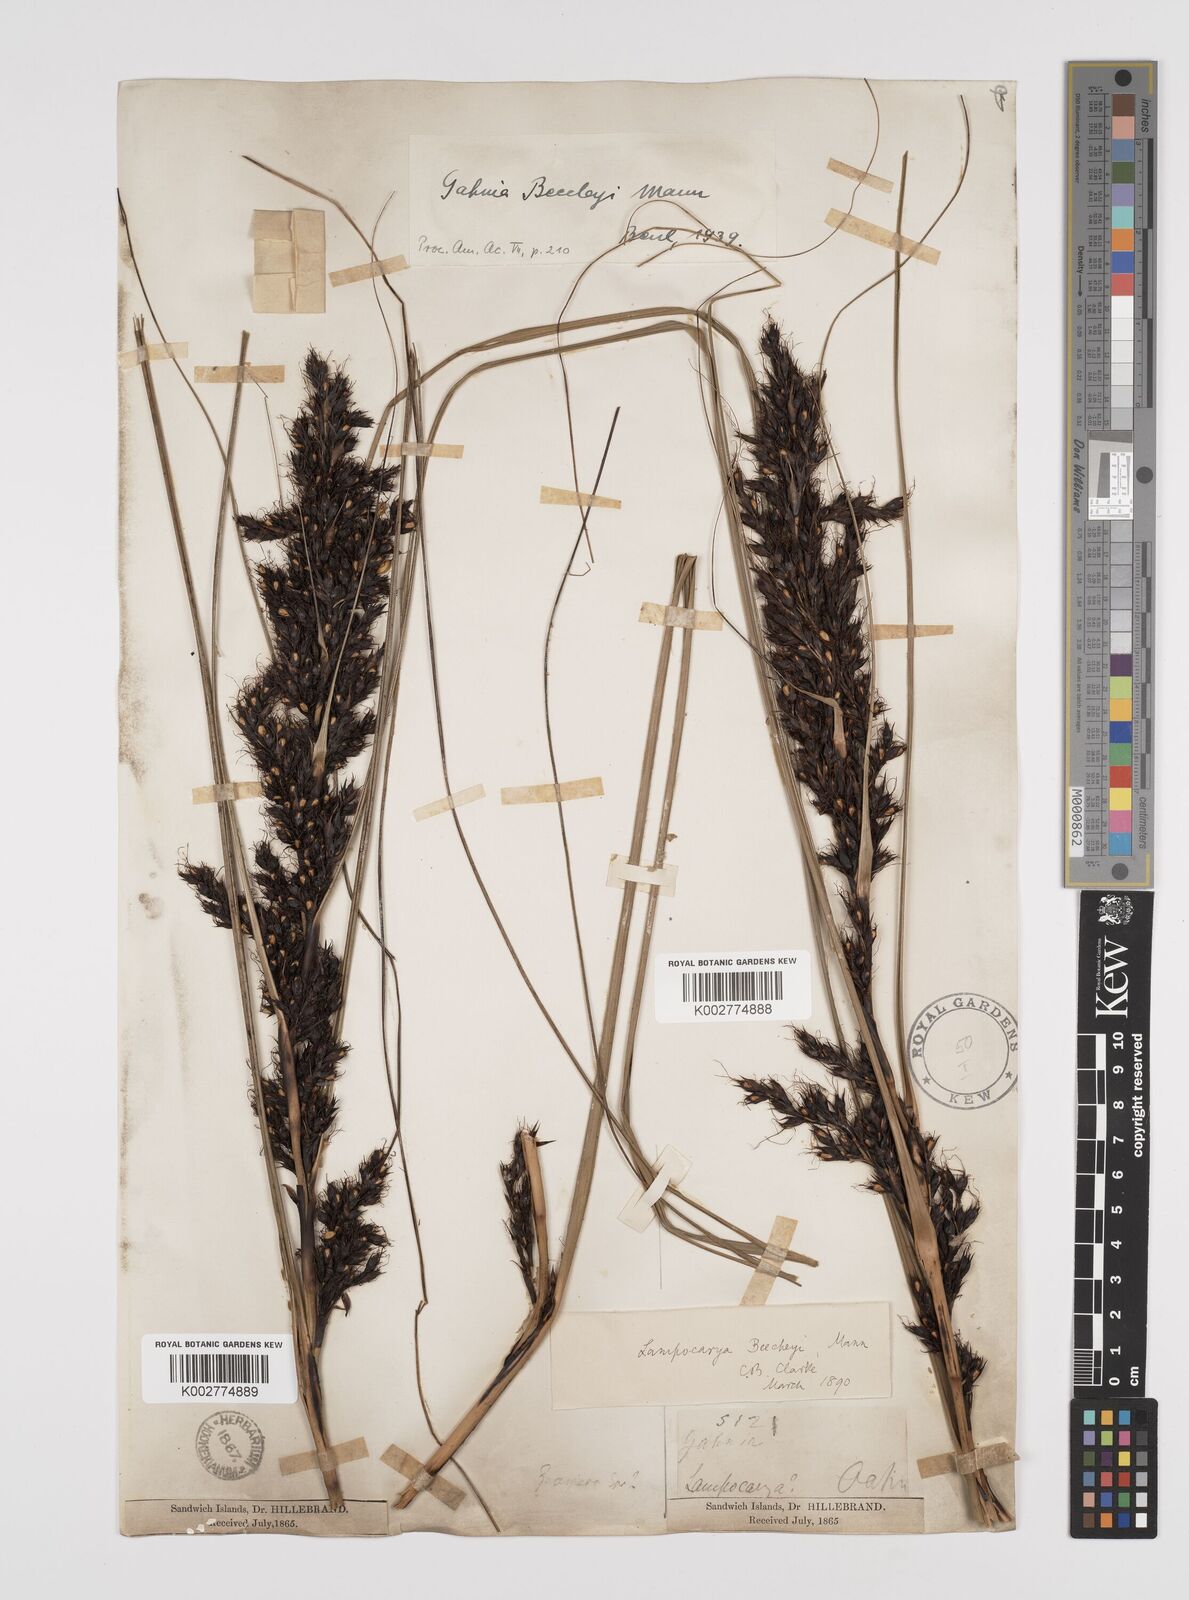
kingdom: Plantae
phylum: Tracheophyta
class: Liliopsida
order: Poales
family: Cyperaceae
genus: Gahnia
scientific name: Gahnia beecheyi
